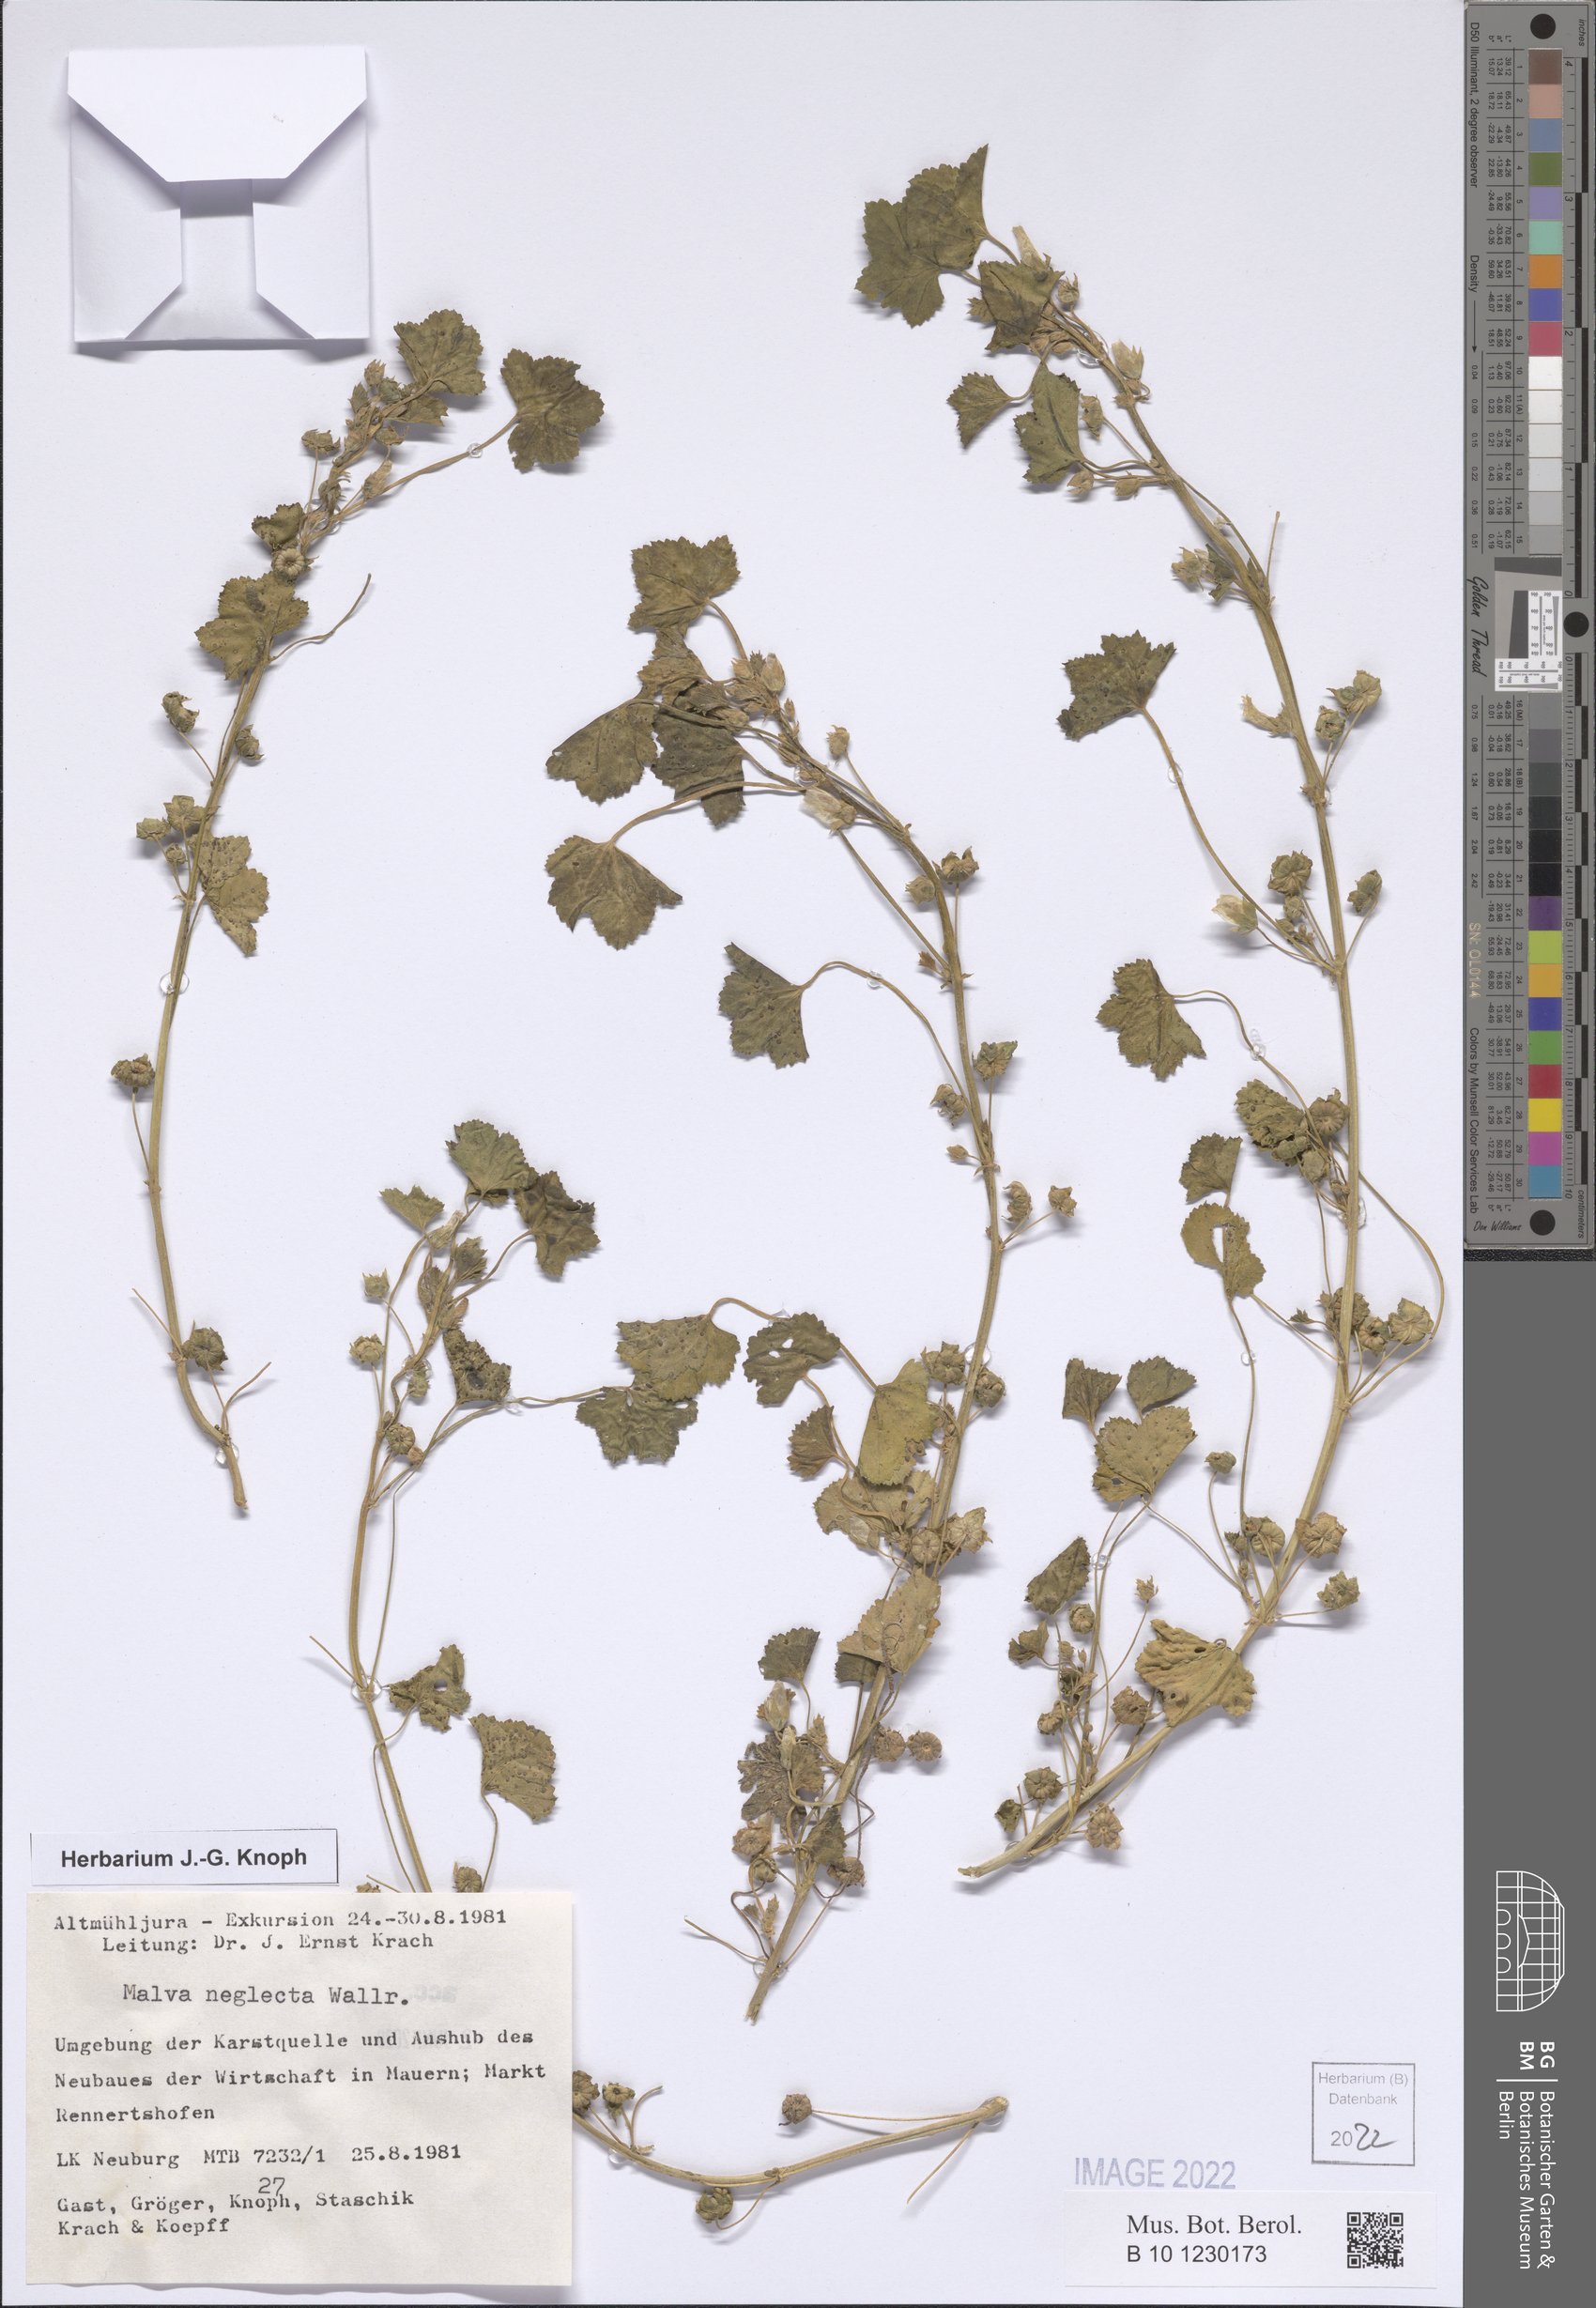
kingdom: Plantae
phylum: Tracheophyta
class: Magnoliopsida
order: Malvales
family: Malvaceae
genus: Malva
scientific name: Malva neglecta
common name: Common mallow
